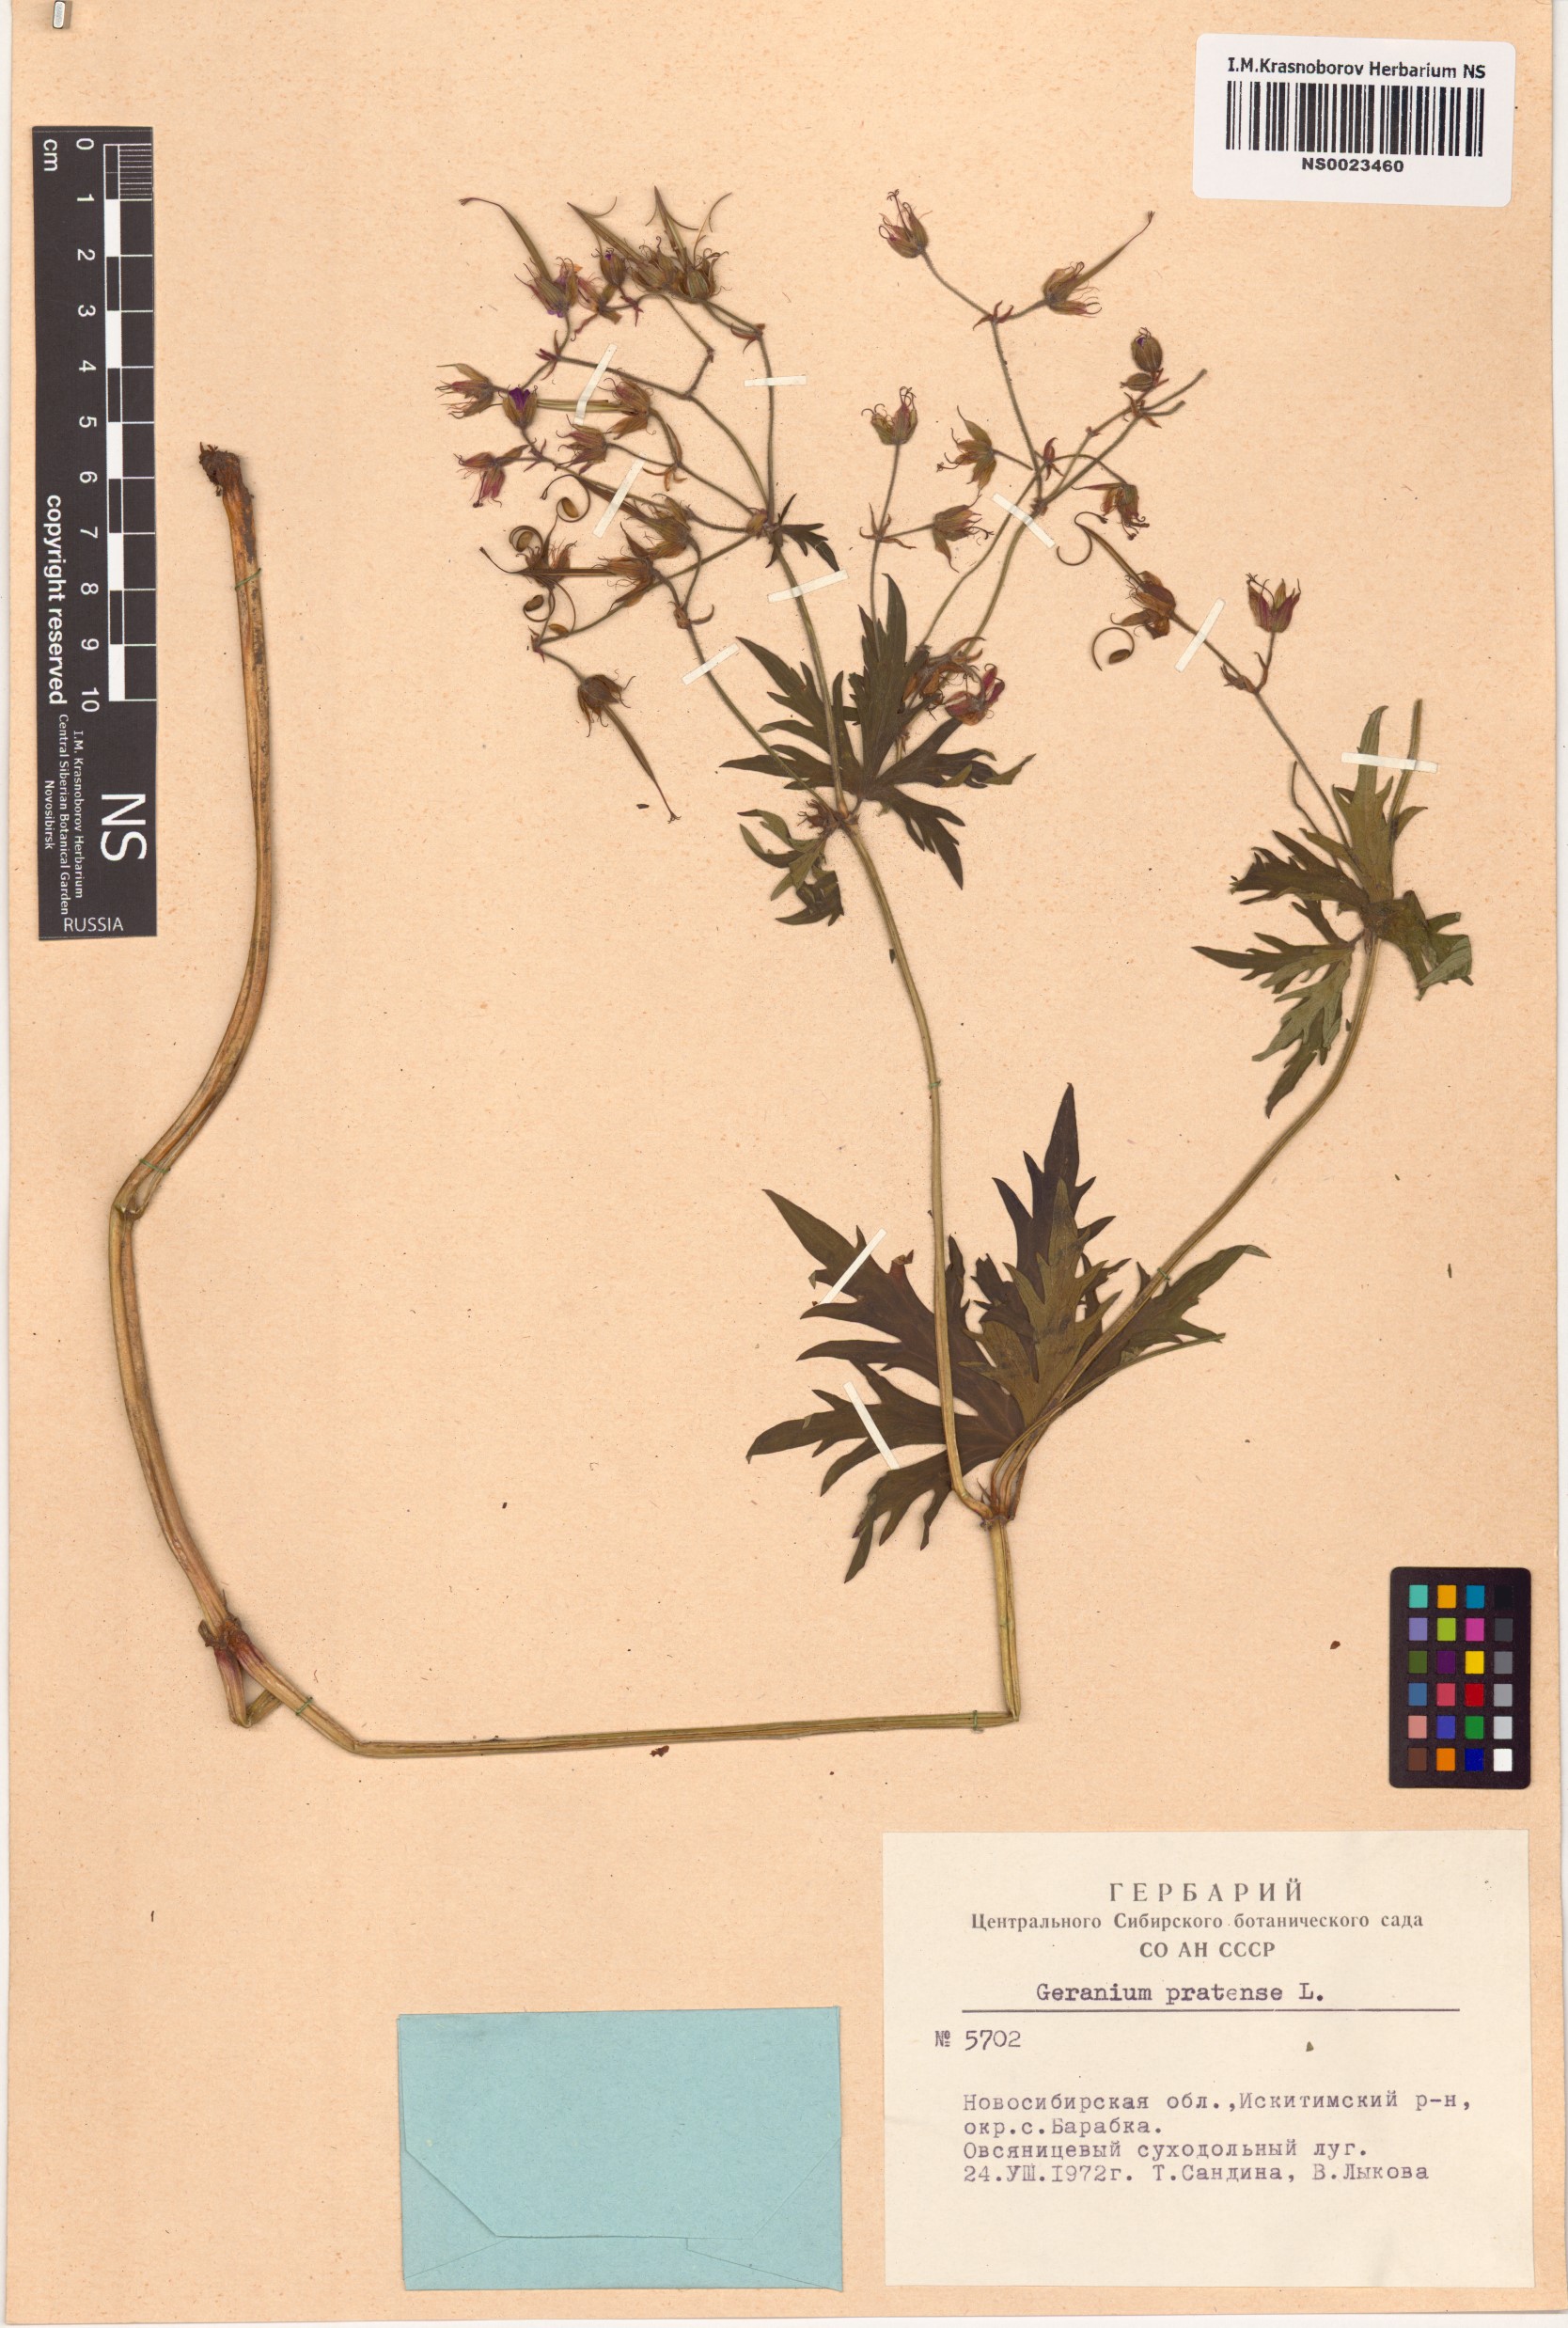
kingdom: Plantae
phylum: Tracheophyta
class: Magnoliopsida
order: Geraniales
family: Geraniaceae
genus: Geranium
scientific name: Geranium pratense
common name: Meadow crane's-bill
